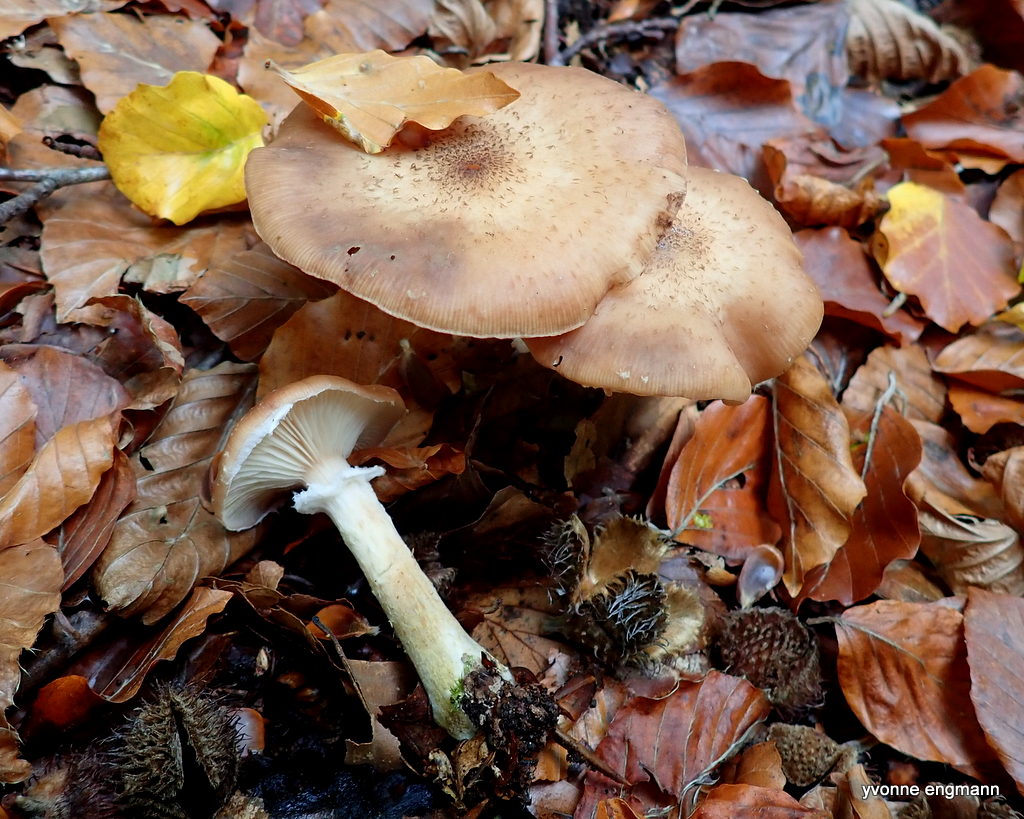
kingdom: Fungi
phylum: Basidiomycota
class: Agaricomycetes
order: Agaricales
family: Physalacriaceae
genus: Armillaria
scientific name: Armillaria lutea
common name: køllestokket honningsvamp
